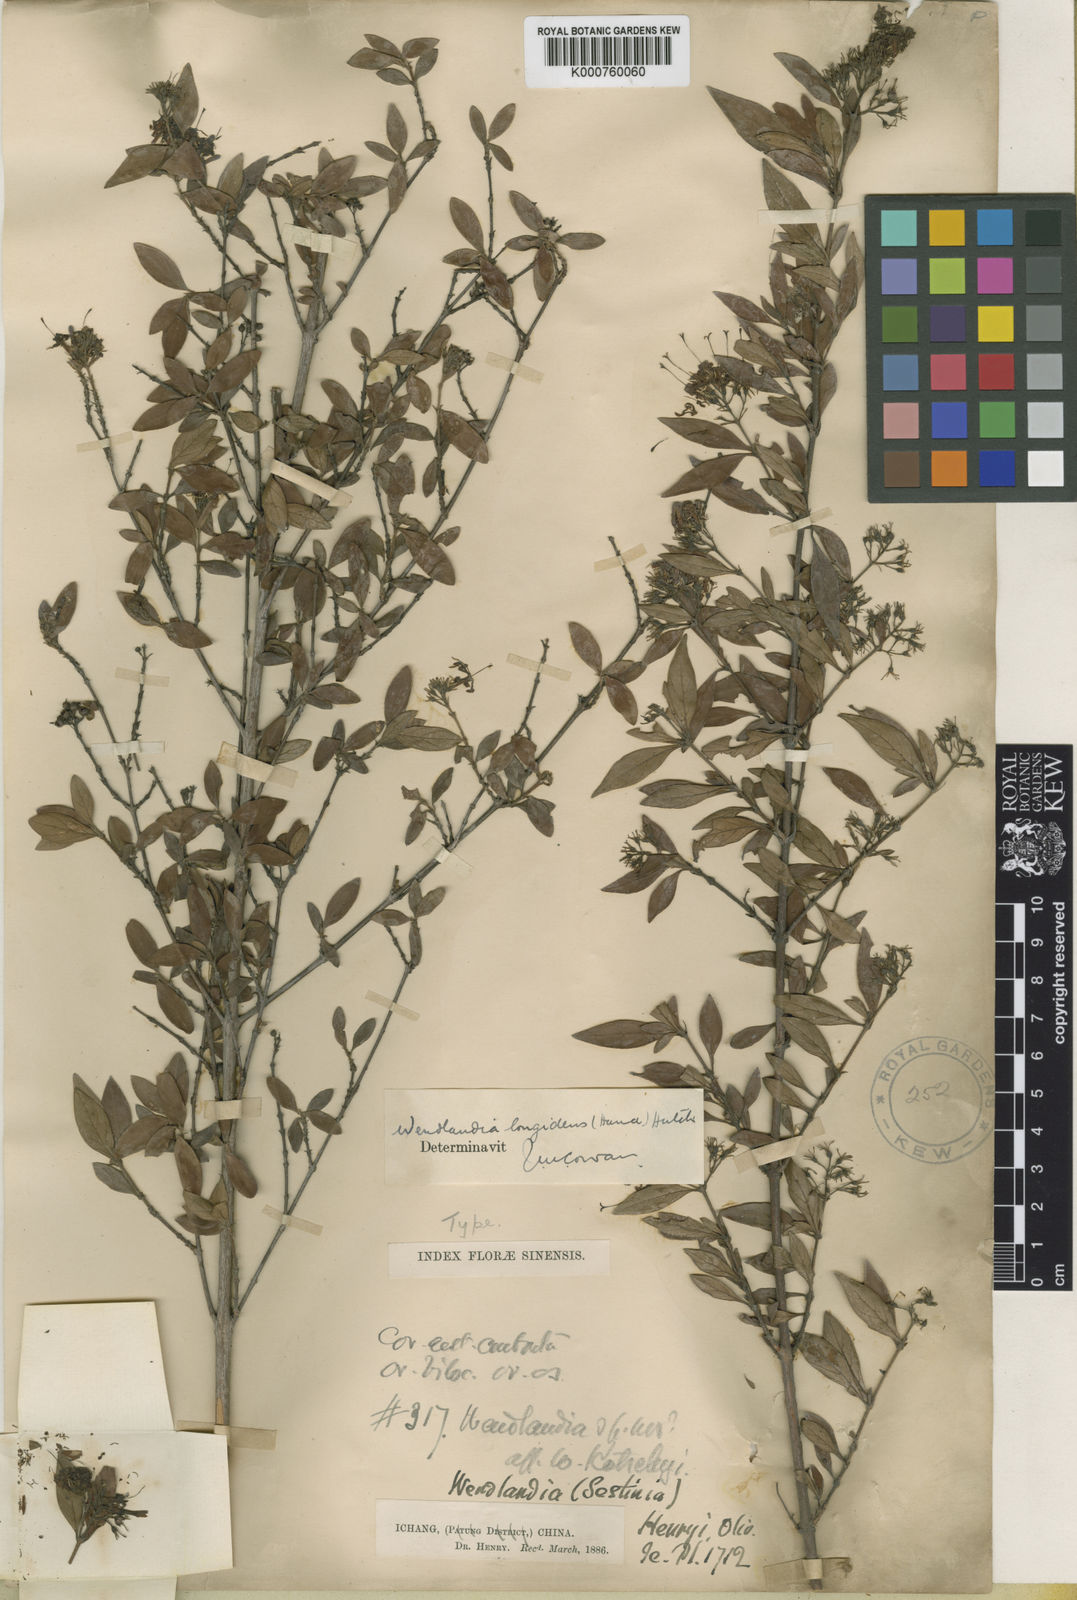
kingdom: Plantae
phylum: Tracheophyta
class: Magnoliopsida
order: Gentianales
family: Rubiaceae
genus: Wendlandia
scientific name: Wendlandia longidens
